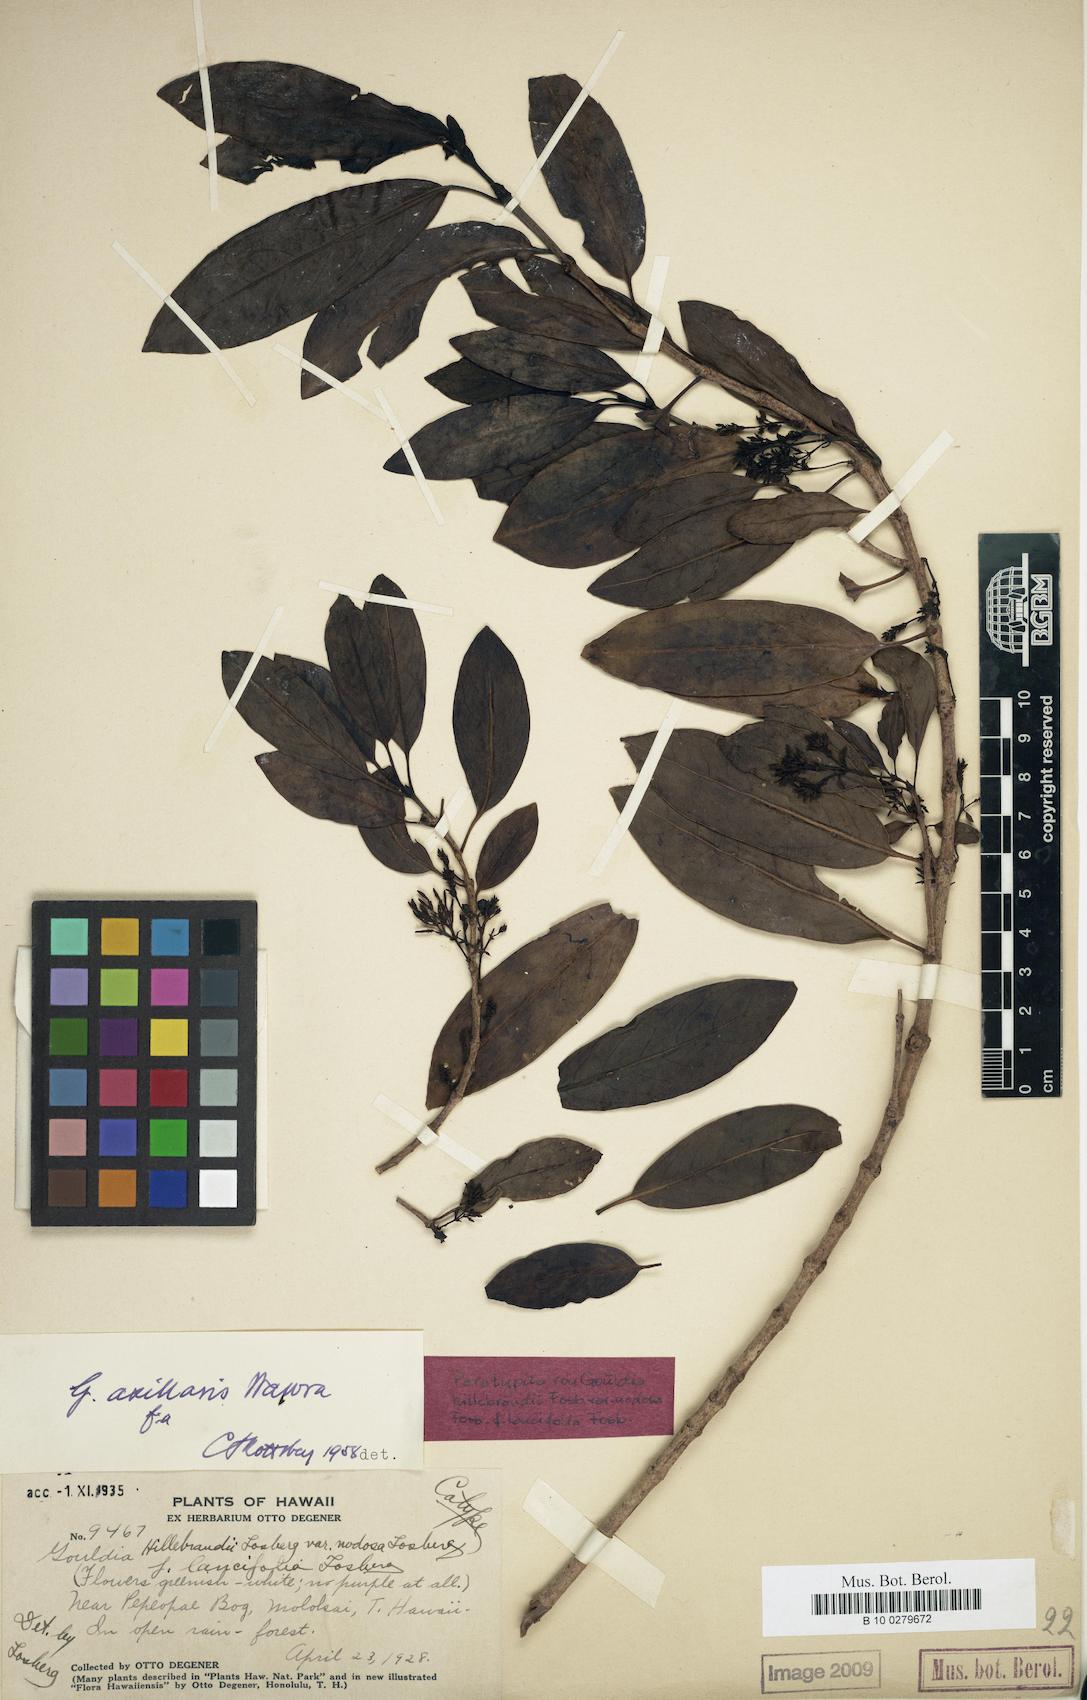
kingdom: Plantae
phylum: Tracheophyta
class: Magnoliopsida
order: Gentianales
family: Rubiaceae
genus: Kadua
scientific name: Kadua axillaris
